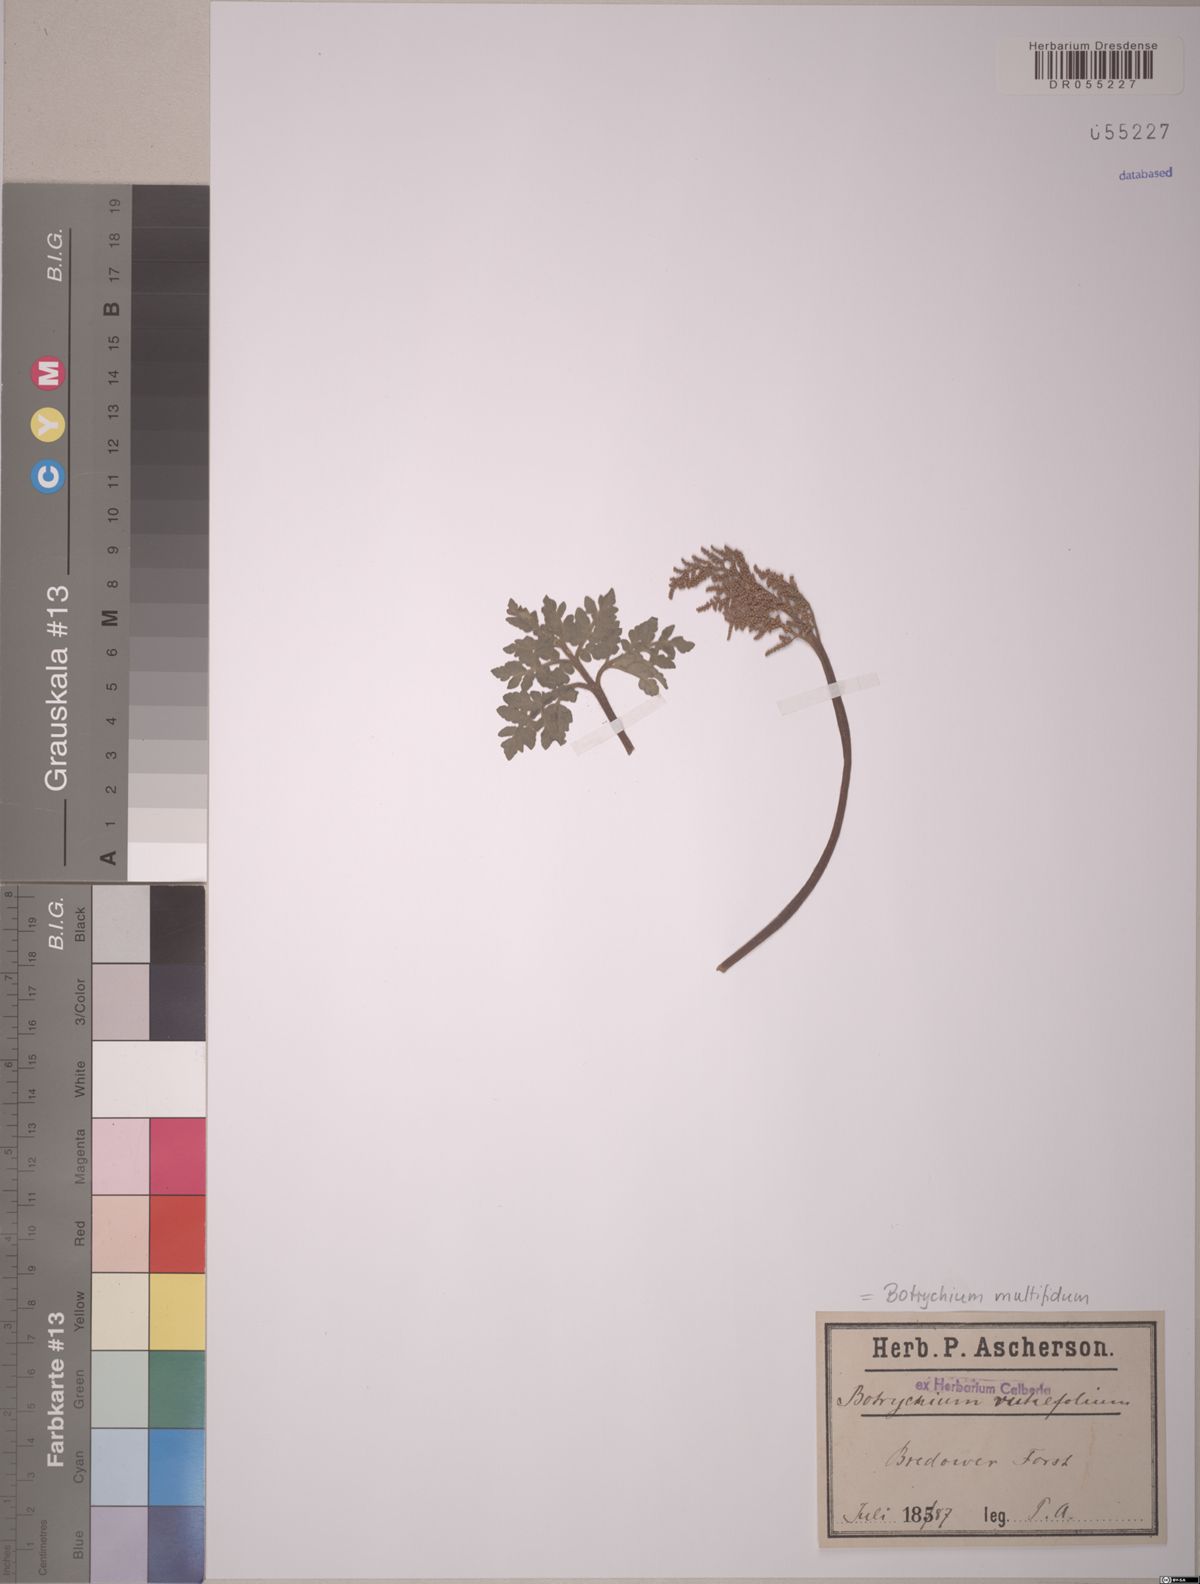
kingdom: Plantae
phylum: Tracheophyta
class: Polypodiopsida
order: Ophioglossales
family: Ophioglossaceae
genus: Sceptridium
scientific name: Sceptridium multifidum
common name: Leathery grape fern
